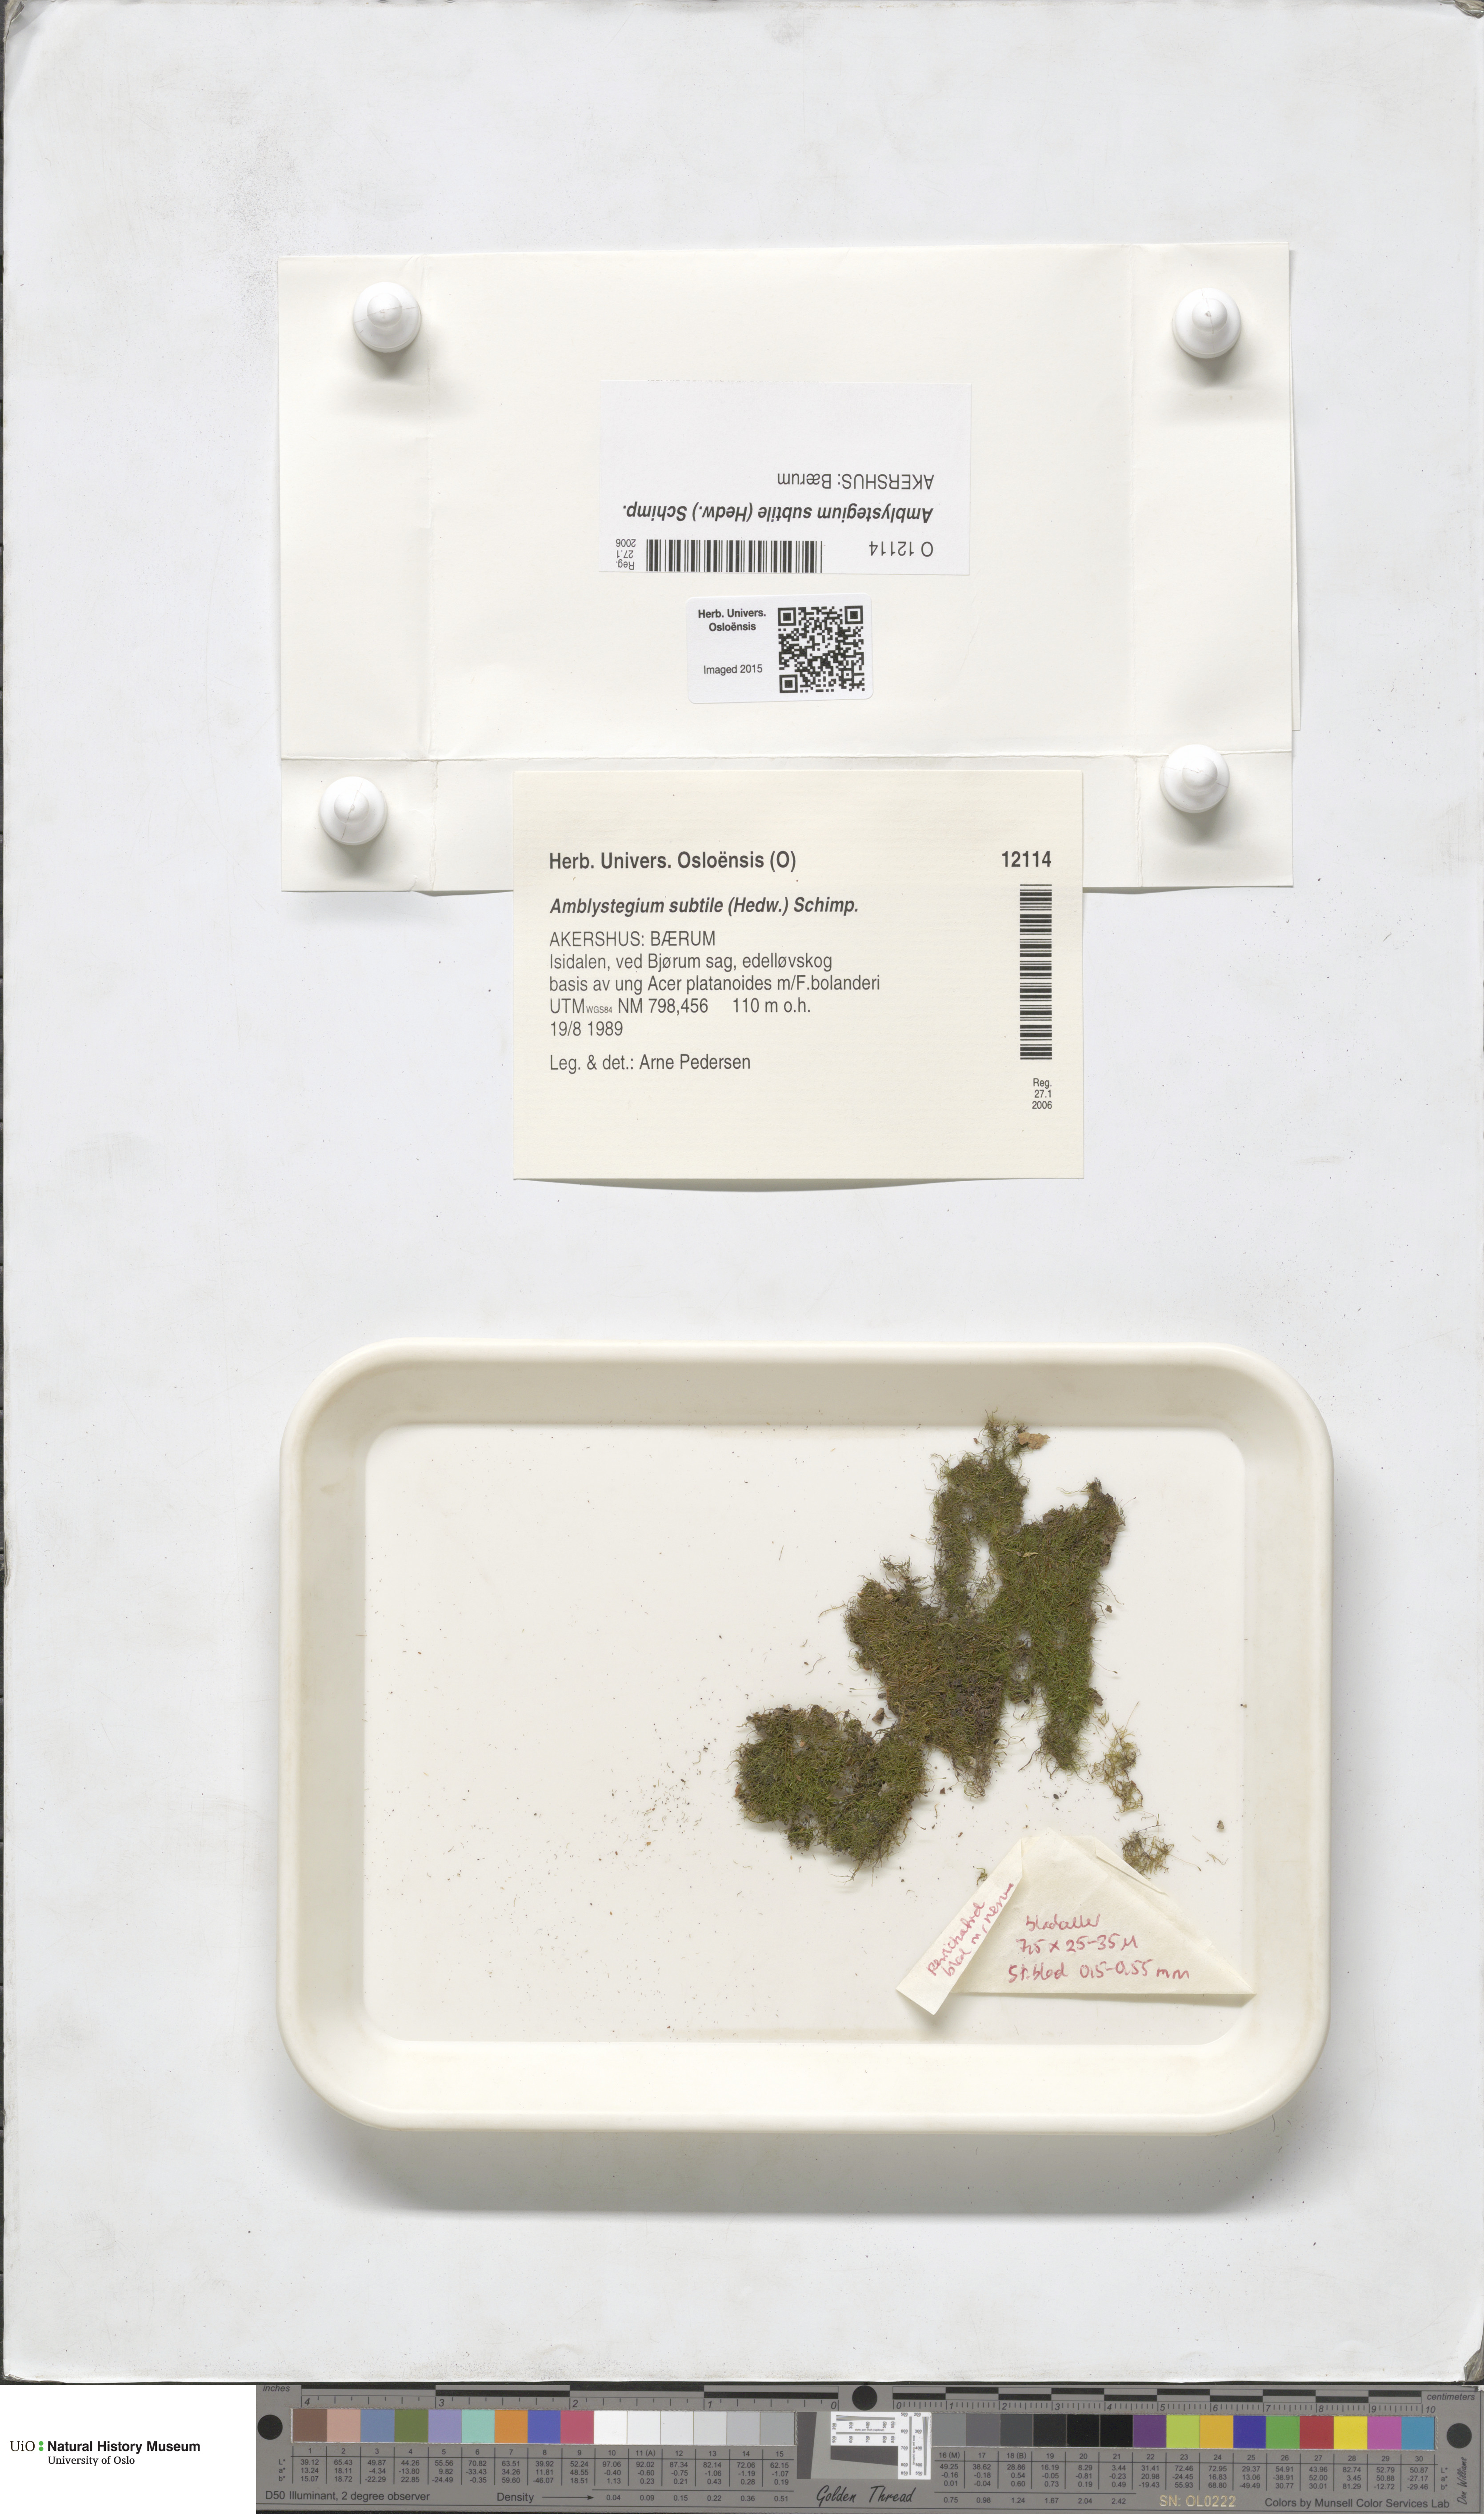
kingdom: Plantae
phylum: Bryophyta
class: Bryopsida
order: Hypnales
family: Amblystegiaceae
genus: Pseudoamblystegium
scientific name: Pseudoamblystegium subtile
